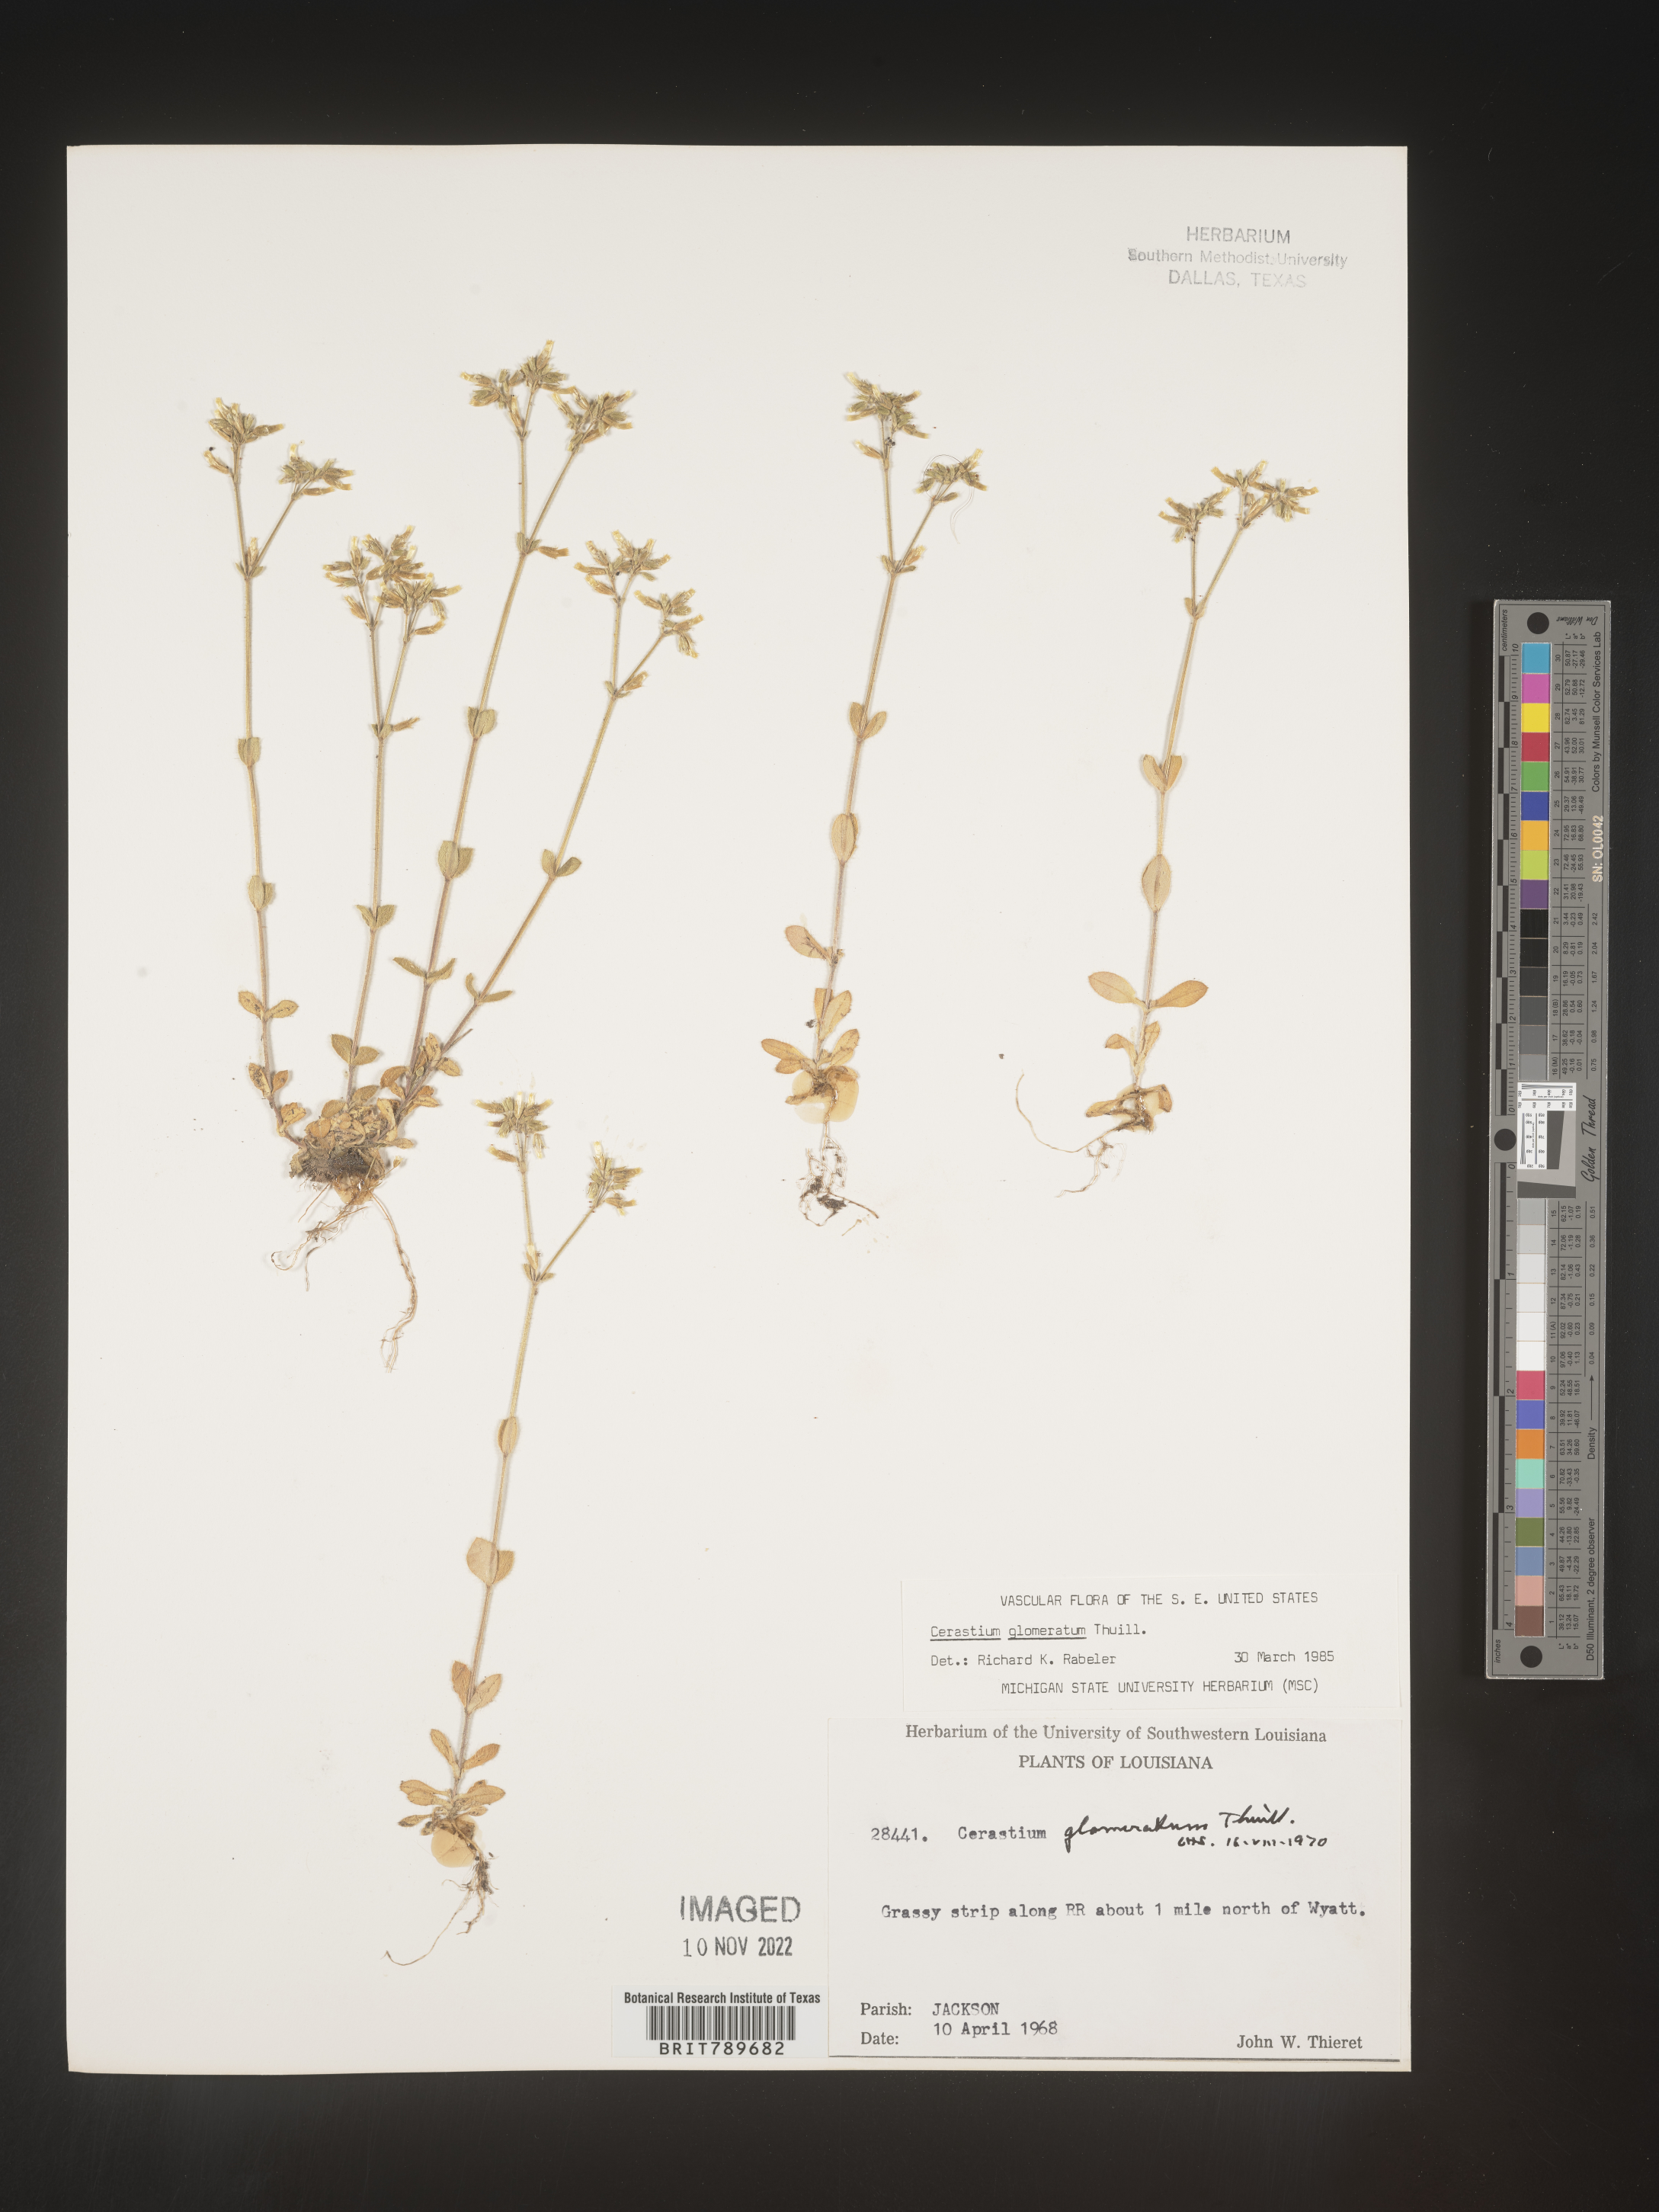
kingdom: Plantae
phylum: Tracheophyta
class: Magnoliopsida
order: Caryophyllales
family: Caryophyllaceae
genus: Cerastium
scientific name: Cerastium glomeratum
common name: Sticky chickweed
